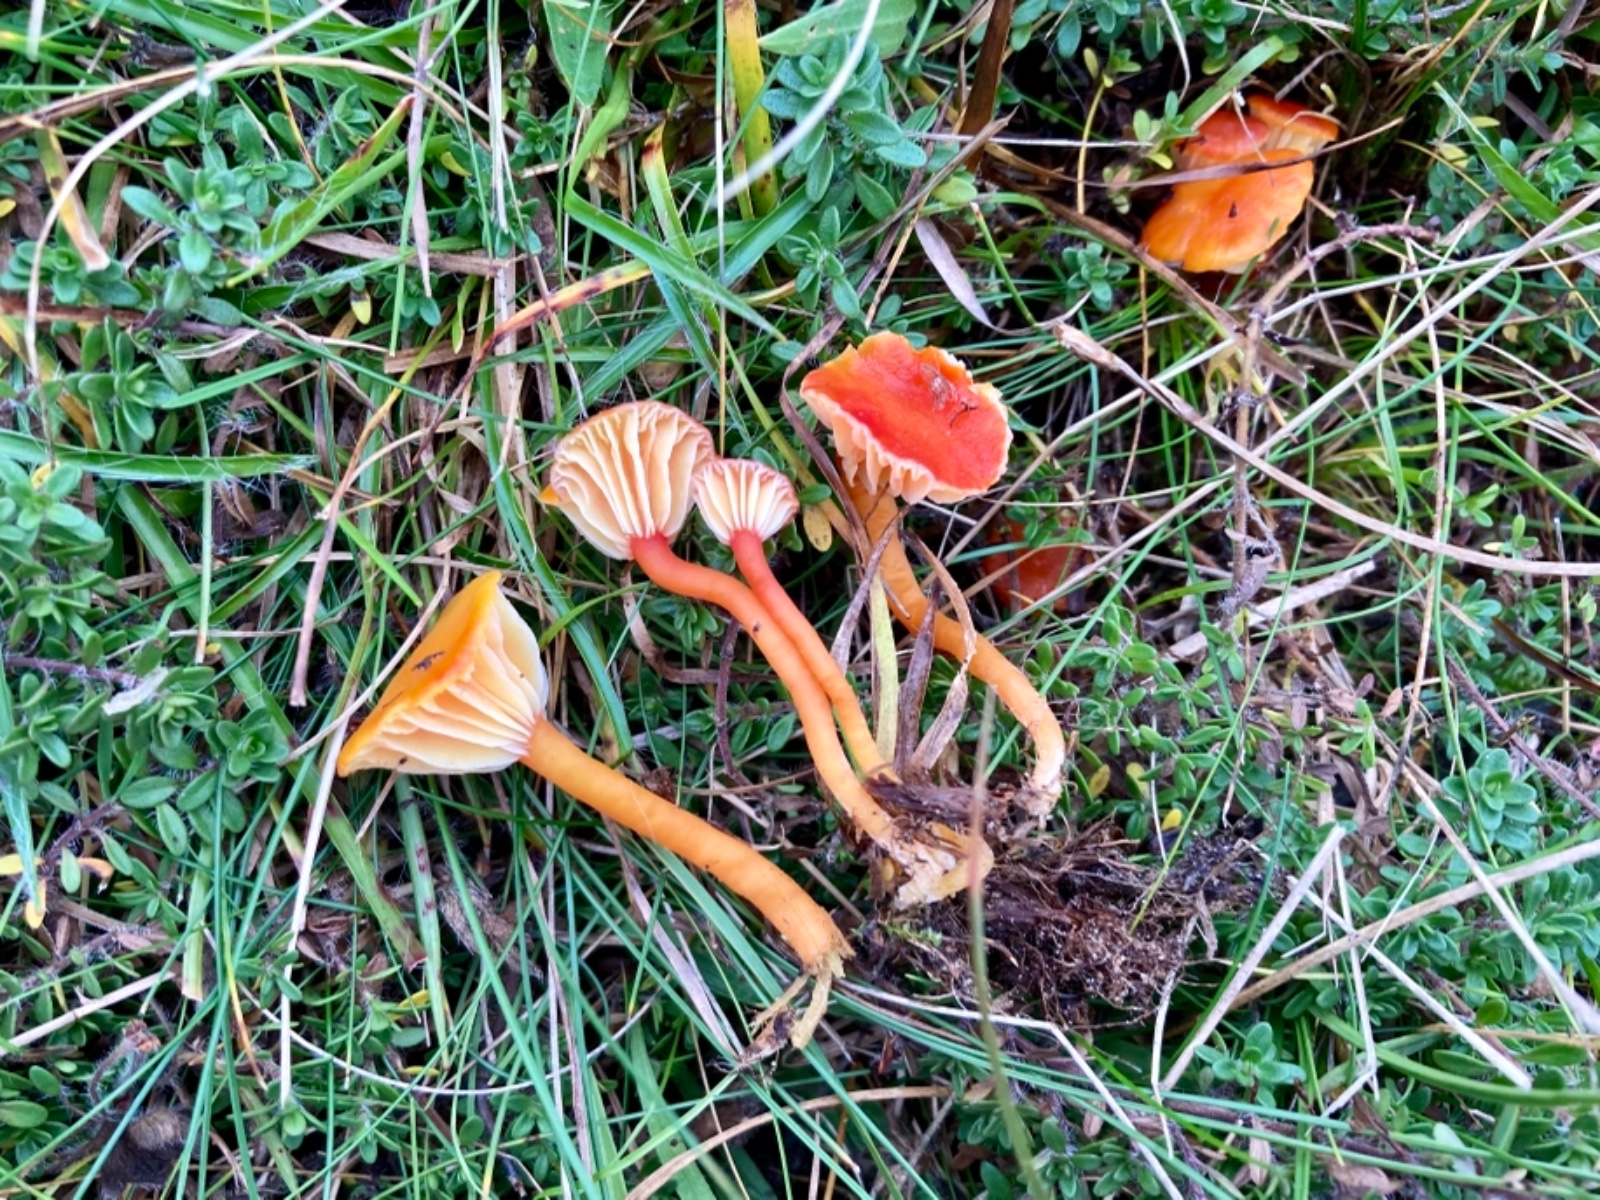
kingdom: Fungi
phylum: Basidiomycota
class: Agaricomycetes
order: Agaricales
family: Hygrophoraceae
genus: Hygrocybe
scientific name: Hygrocybe insipida
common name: liden vokshat
